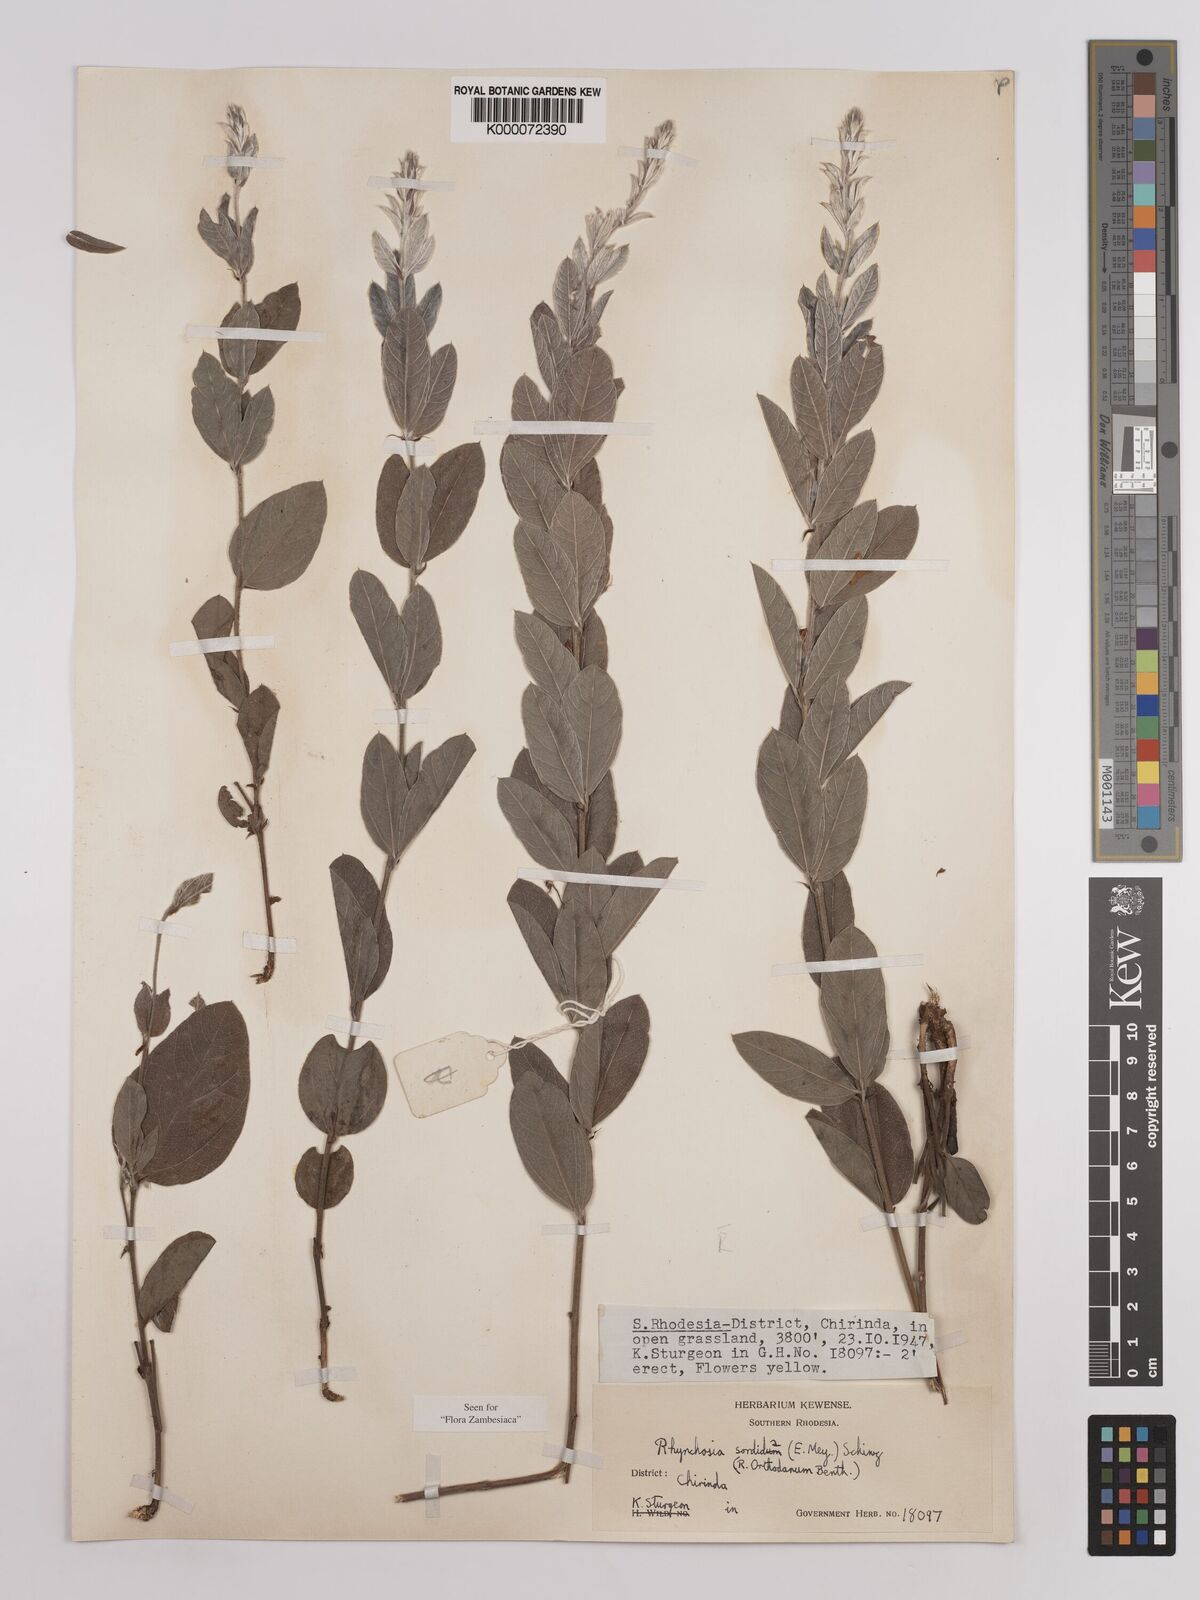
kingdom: Plantae
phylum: Tracheophyta
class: Magnoliopsida
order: Fabales
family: Fabaceae
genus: Rhynchosia
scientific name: Rhynchosia sordida
